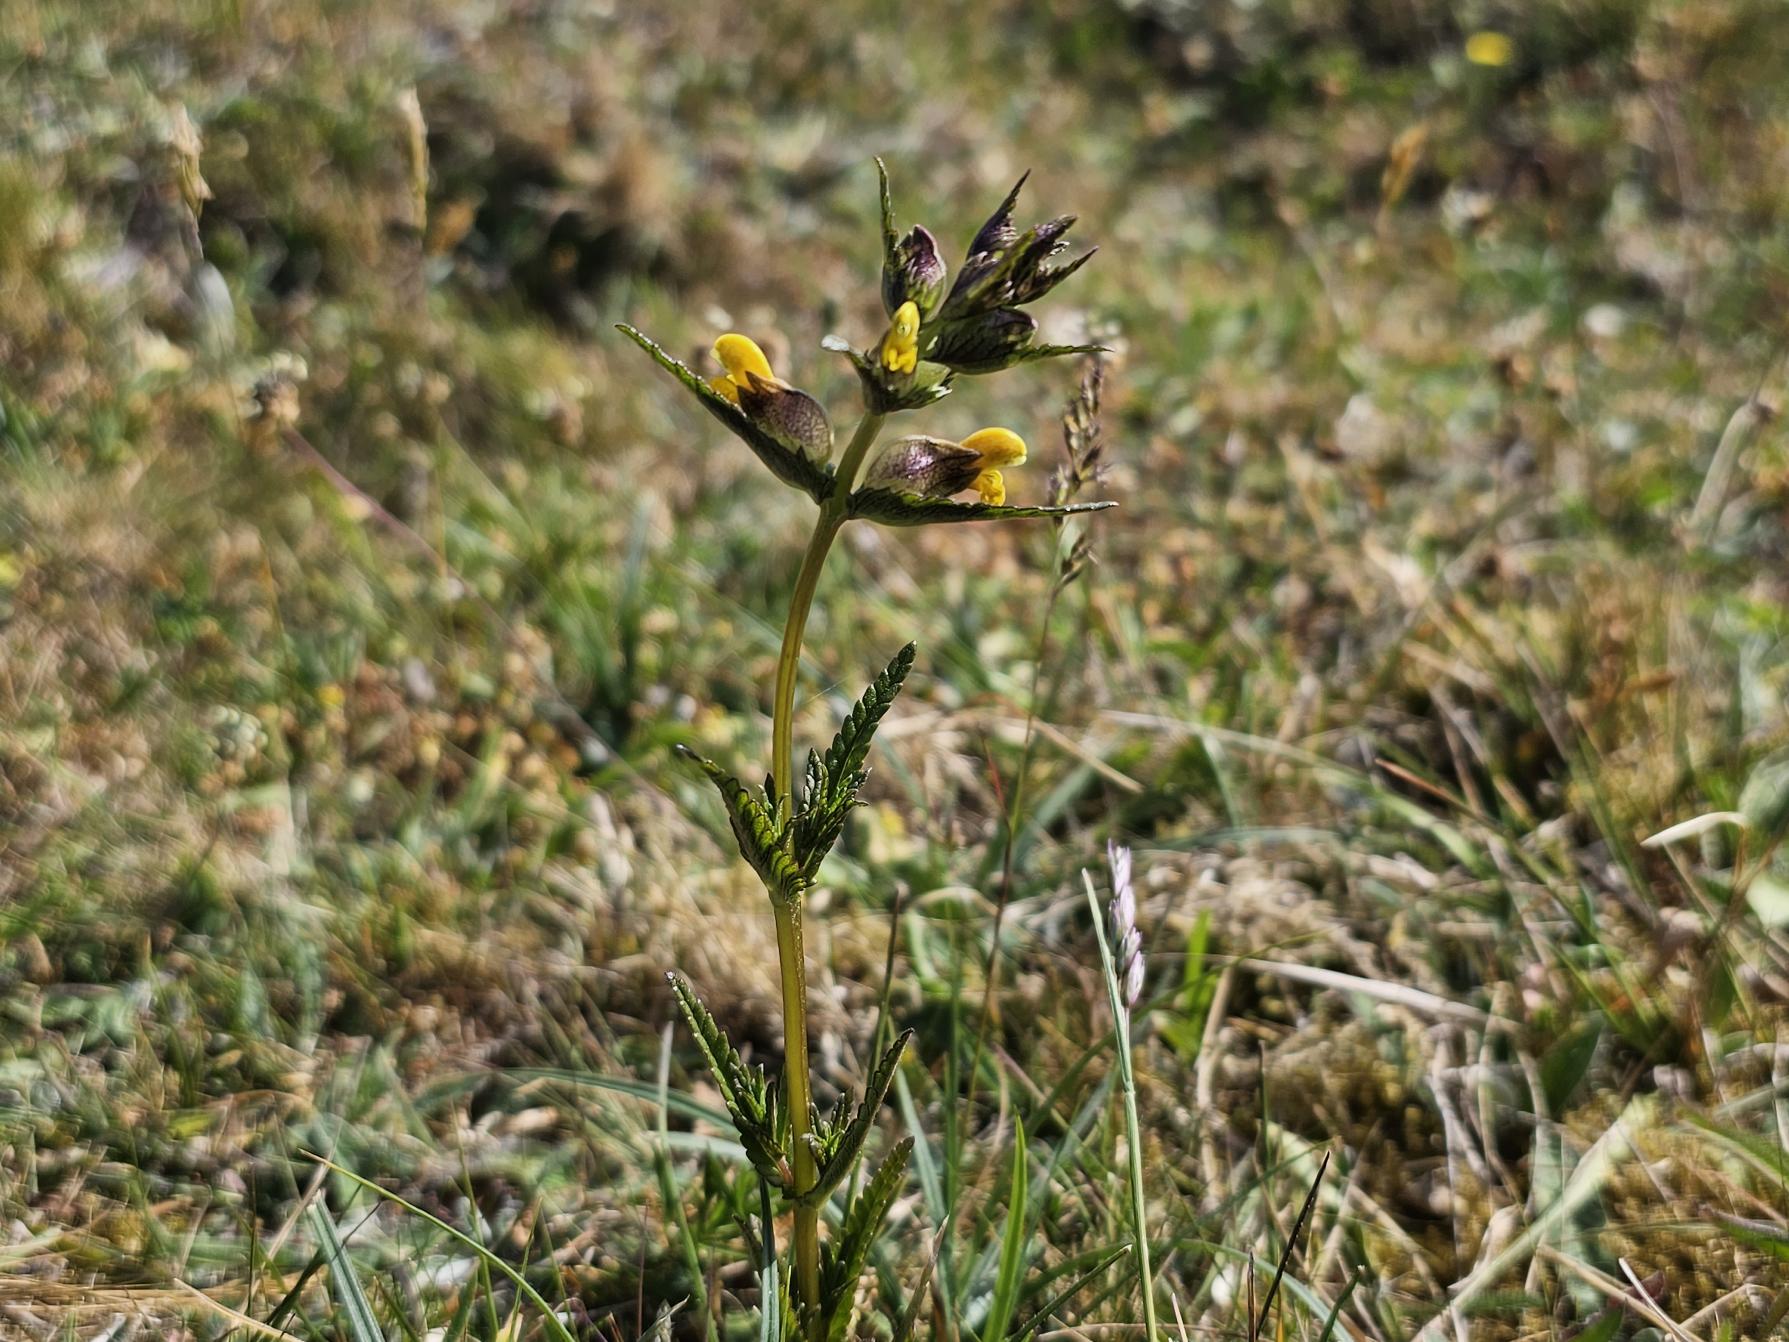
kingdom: Plantae
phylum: Tracheophyta
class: Magnoliopsida
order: Lamiales
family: Orobanchaceae
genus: Rhinanthus
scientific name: Rhinanthus minor
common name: Liden skjaller
